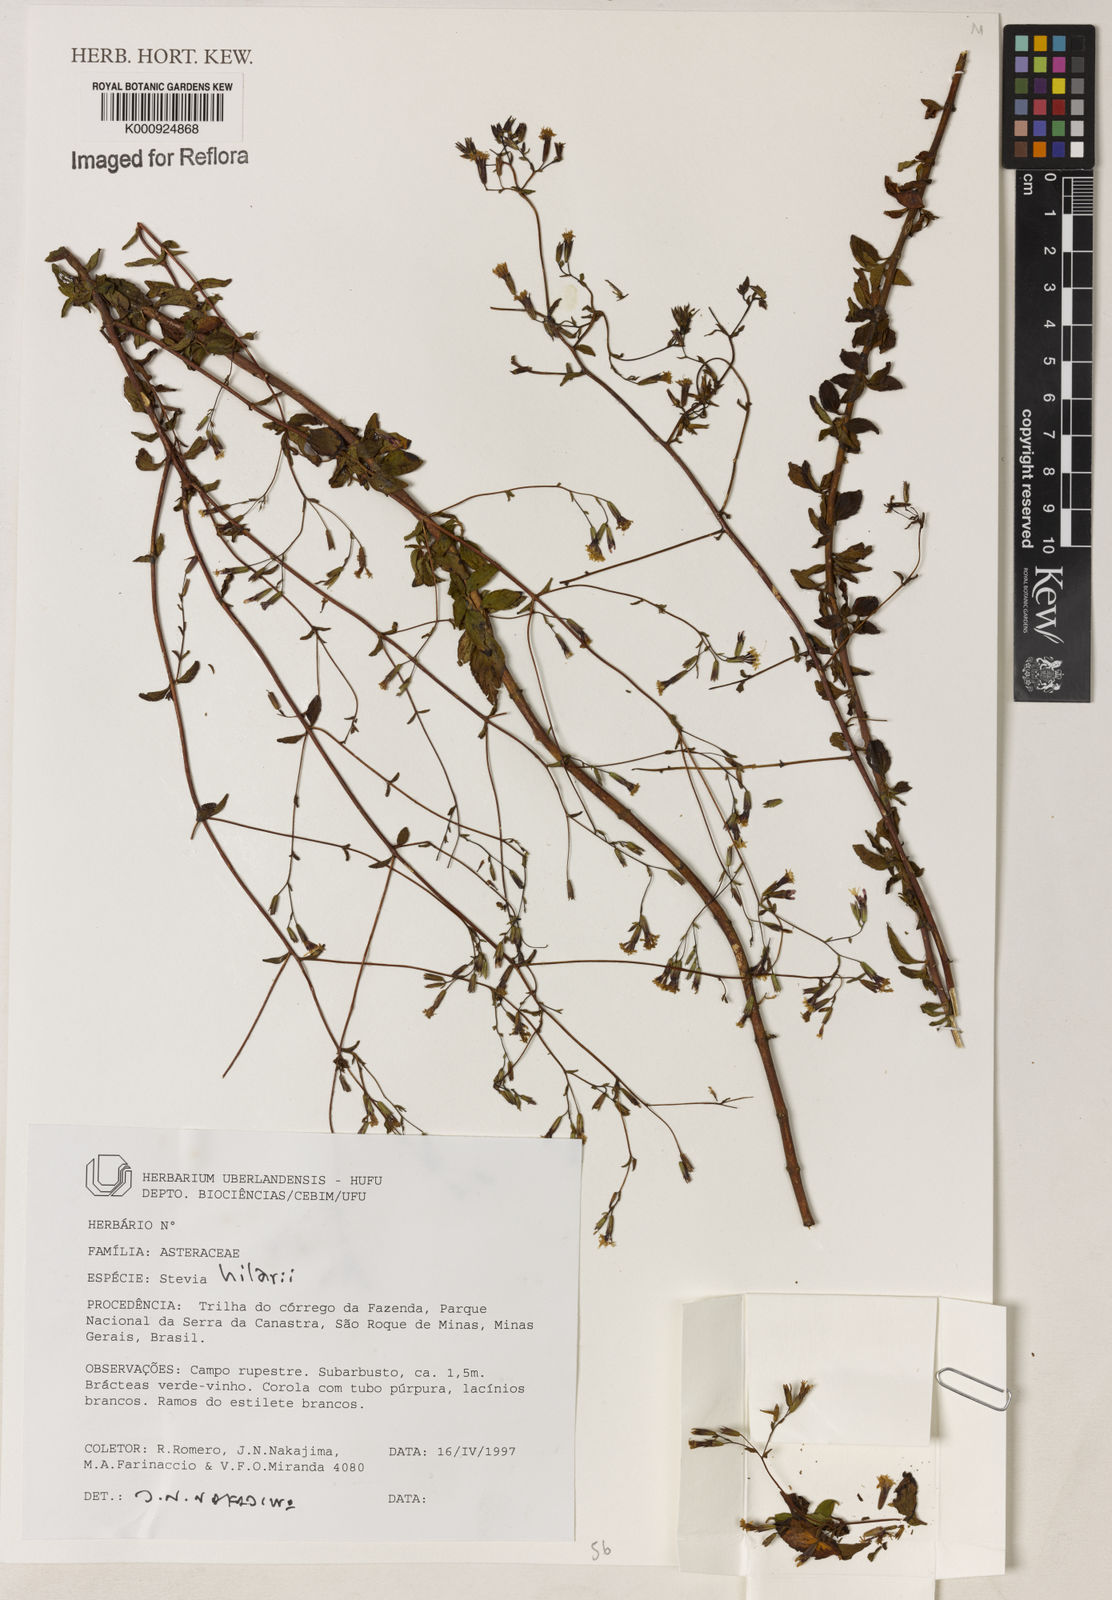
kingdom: Plantae
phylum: Tracheophyta
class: Magnoliopsida
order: Asterales
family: Asteraceae
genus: Stevia
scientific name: Stevia hilarii
